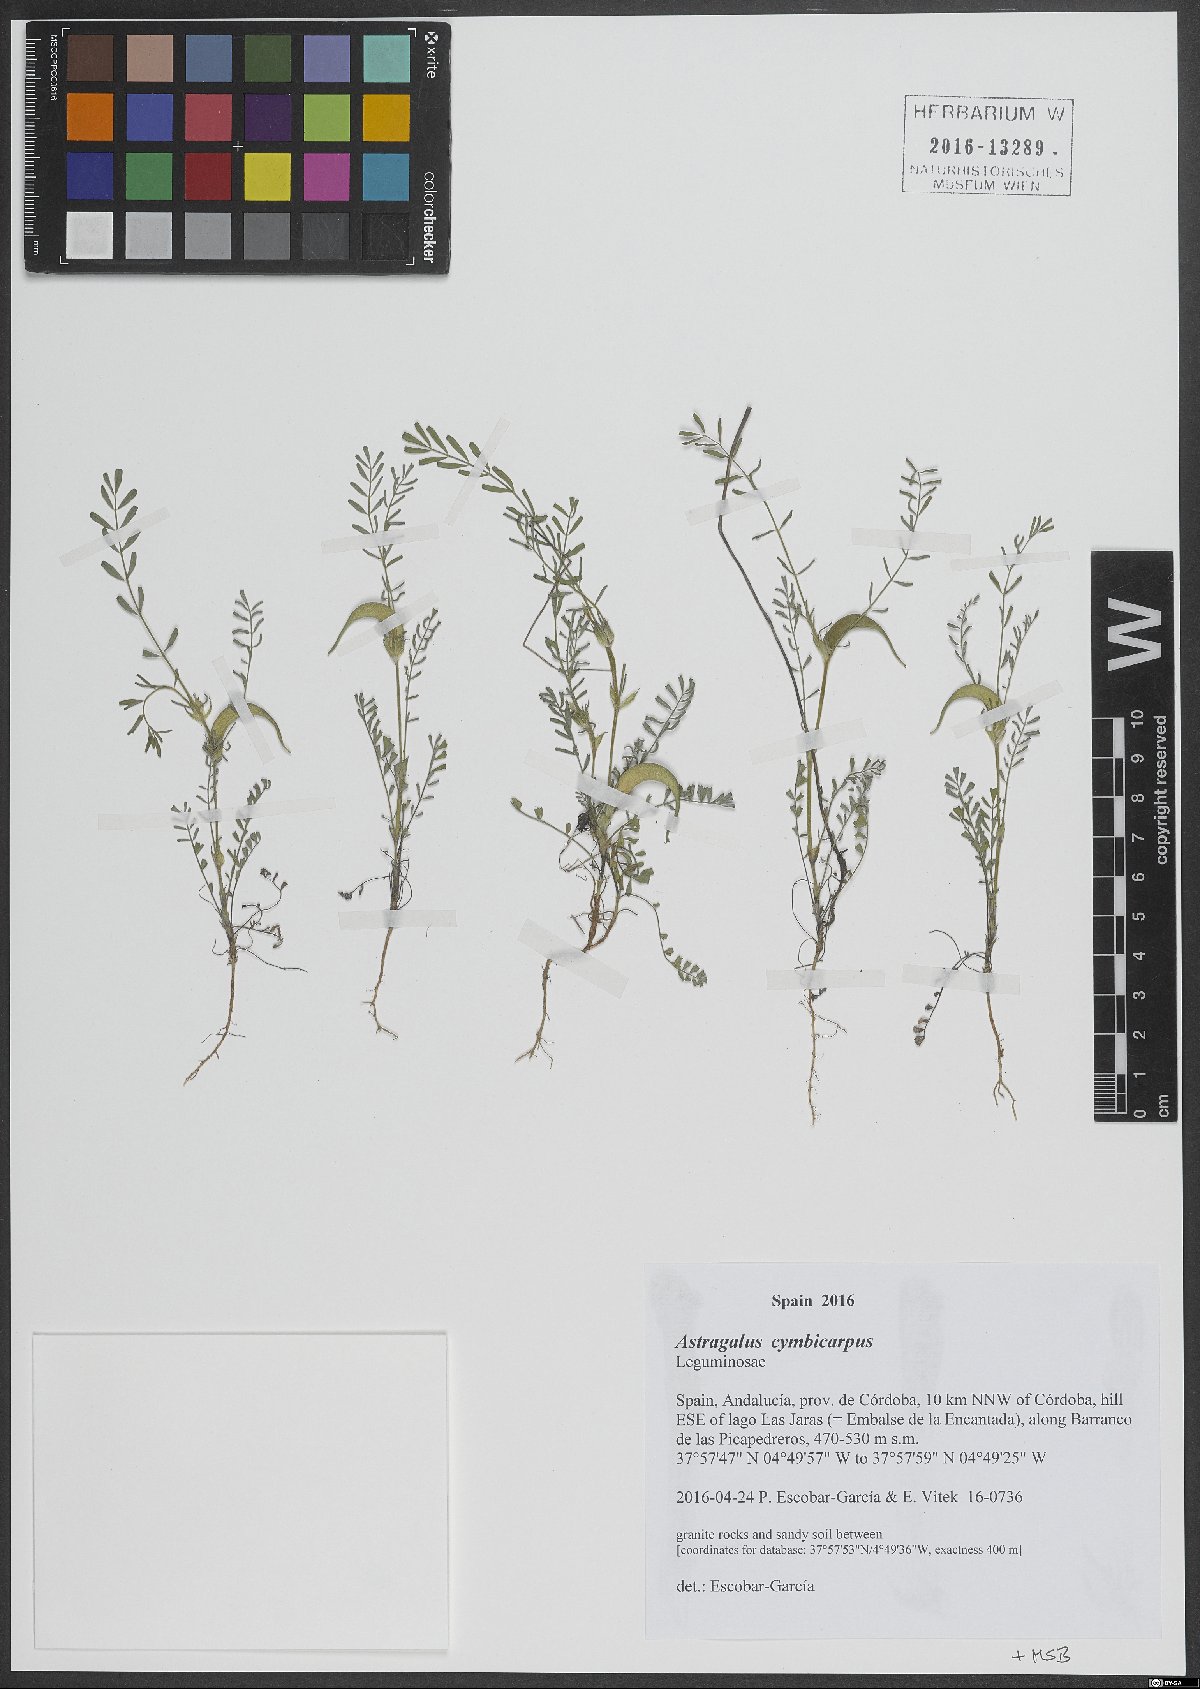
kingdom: Plantae
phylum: Tracheophyta
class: Magnoliopsida
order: Fabales
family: Fabaceae
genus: Astragalus
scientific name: Astragalus cymbicarpos
